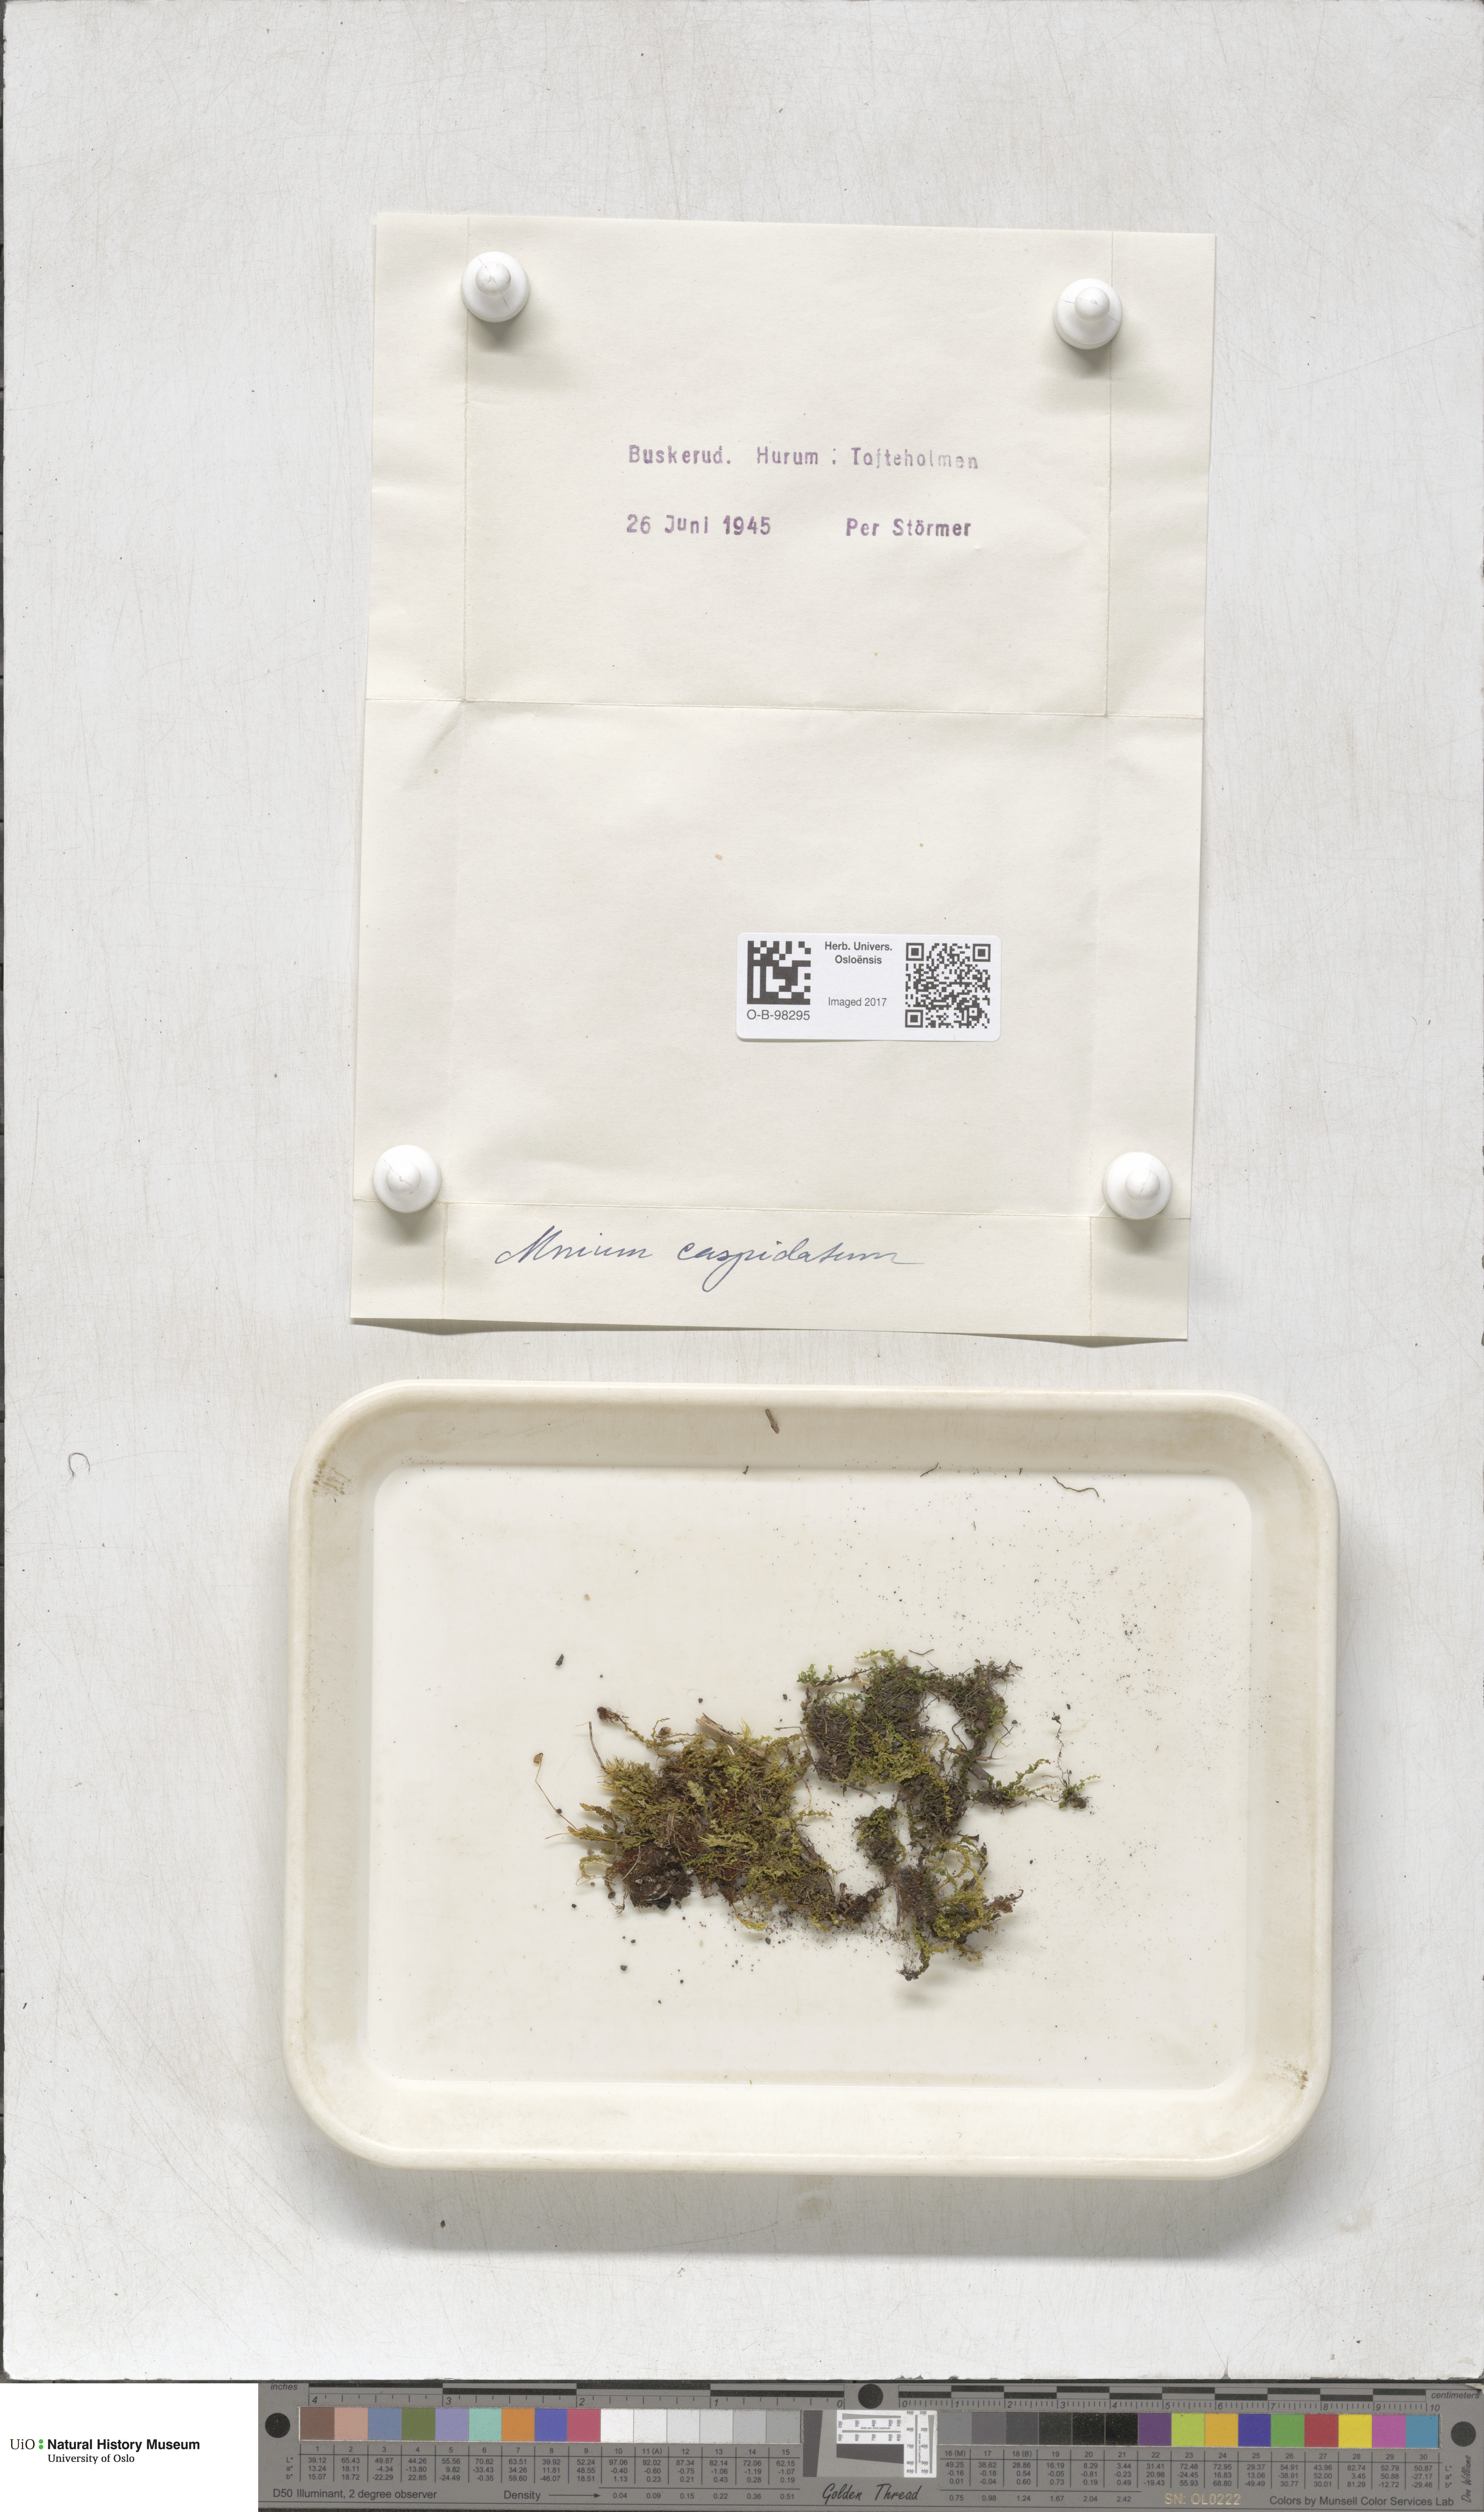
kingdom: Plantae
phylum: Bryophyta
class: Bryopsida
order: Bryales
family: Mniaceae
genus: Plagiomnium
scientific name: Plagiomnium cuspidatum
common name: Woodsy leafy moss
